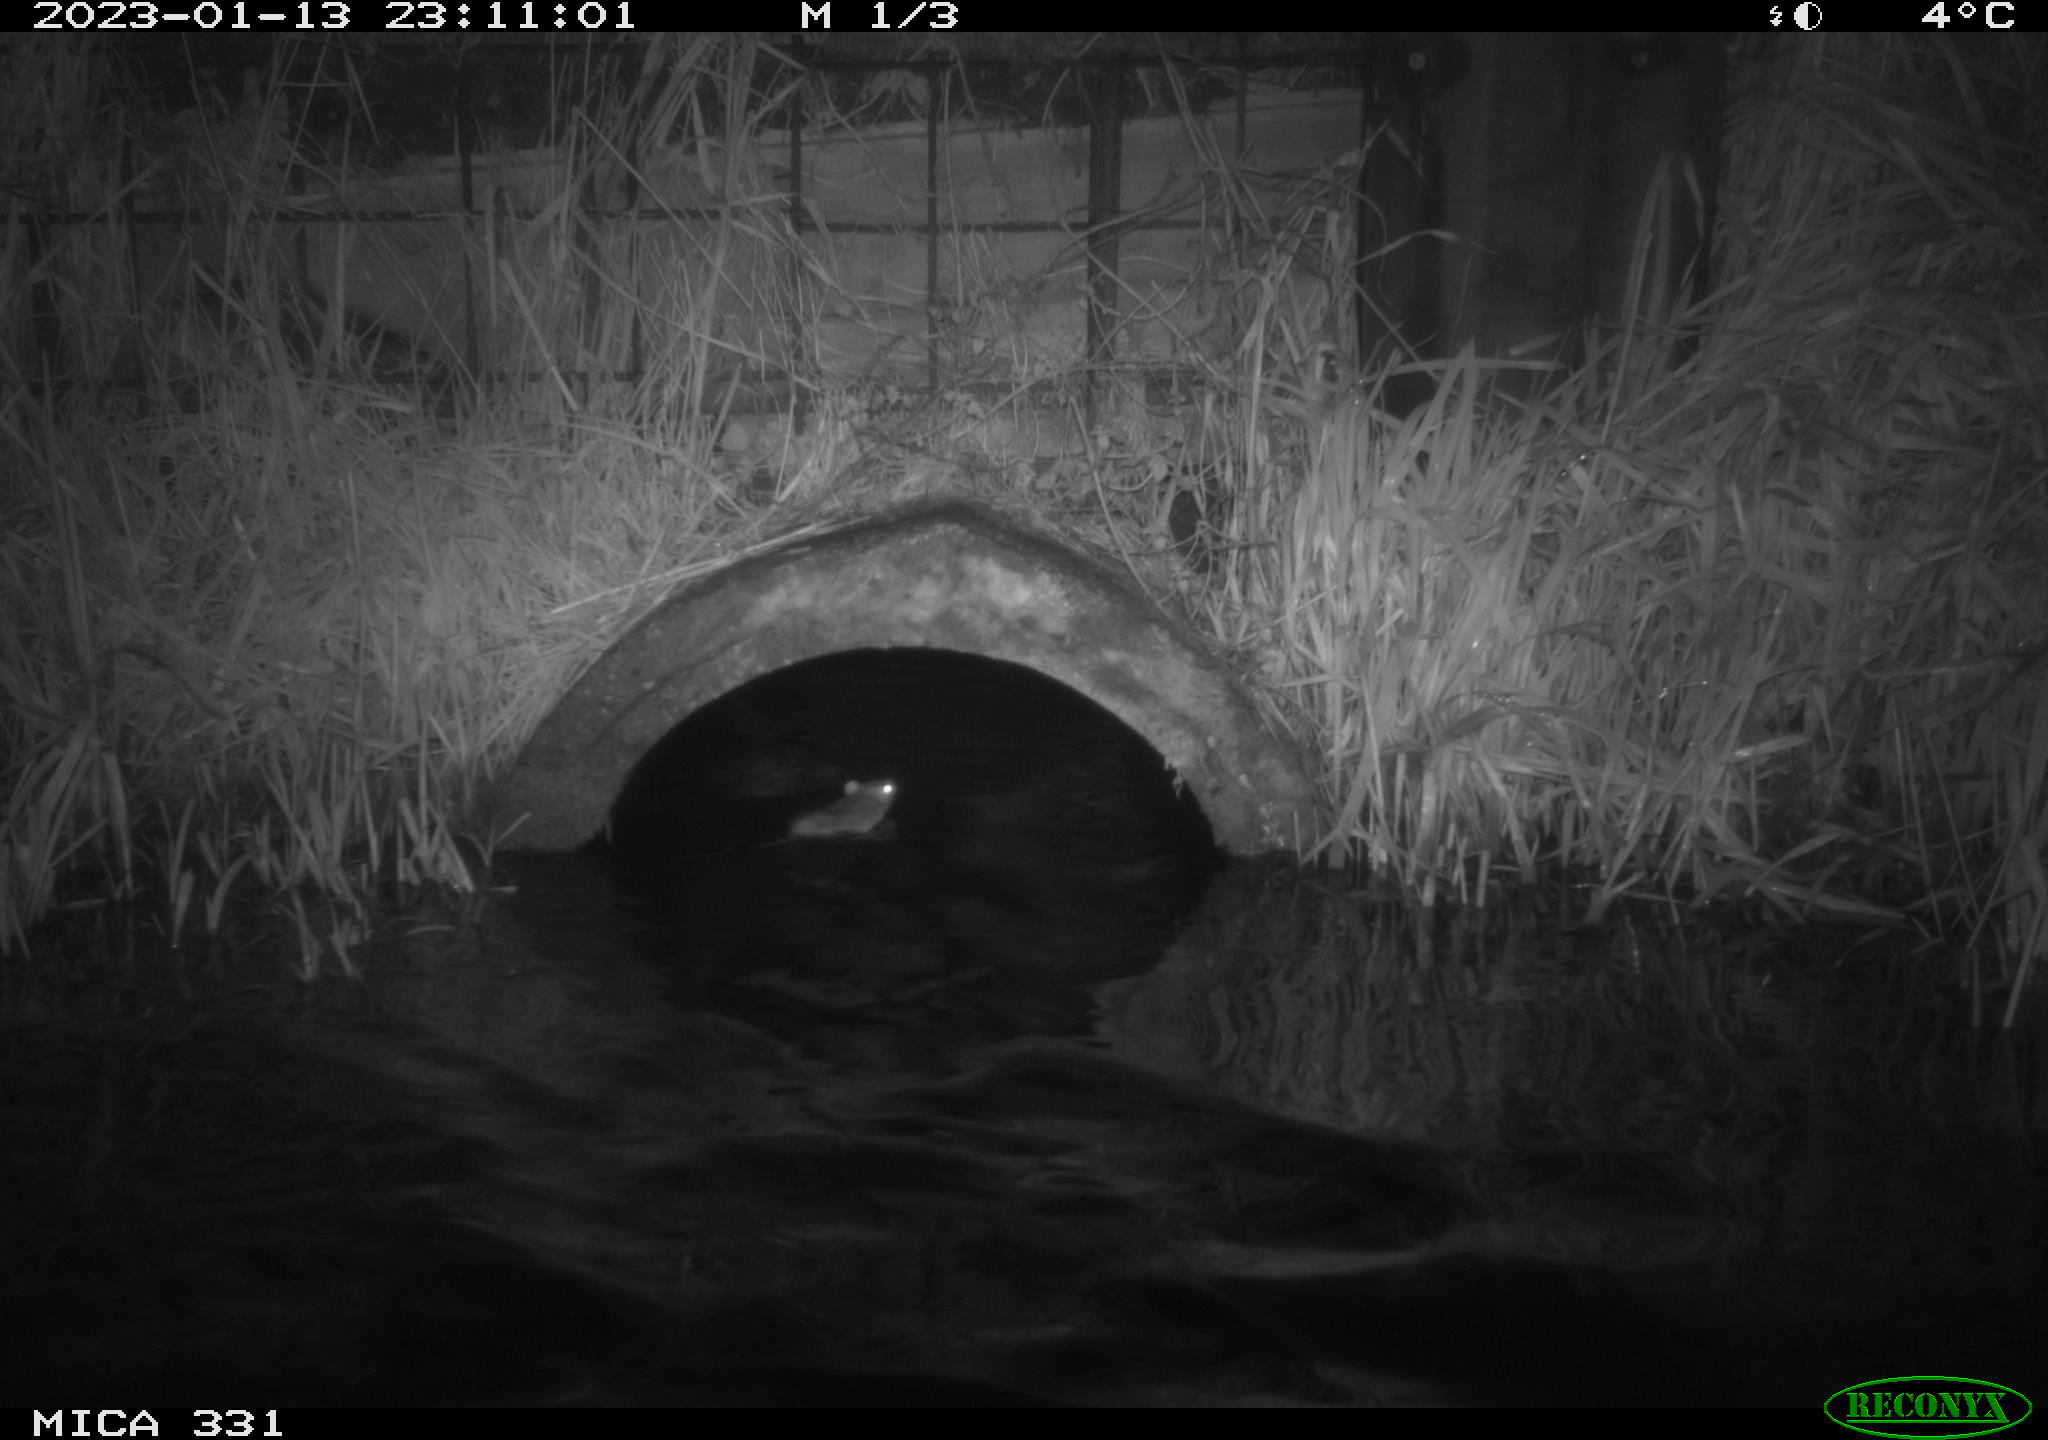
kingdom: Animalia
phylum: Chordata
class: Mammalia
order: Rodentia
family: Muridae
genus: Rattus
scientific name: Rattus norvegicus
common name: Brown rat
